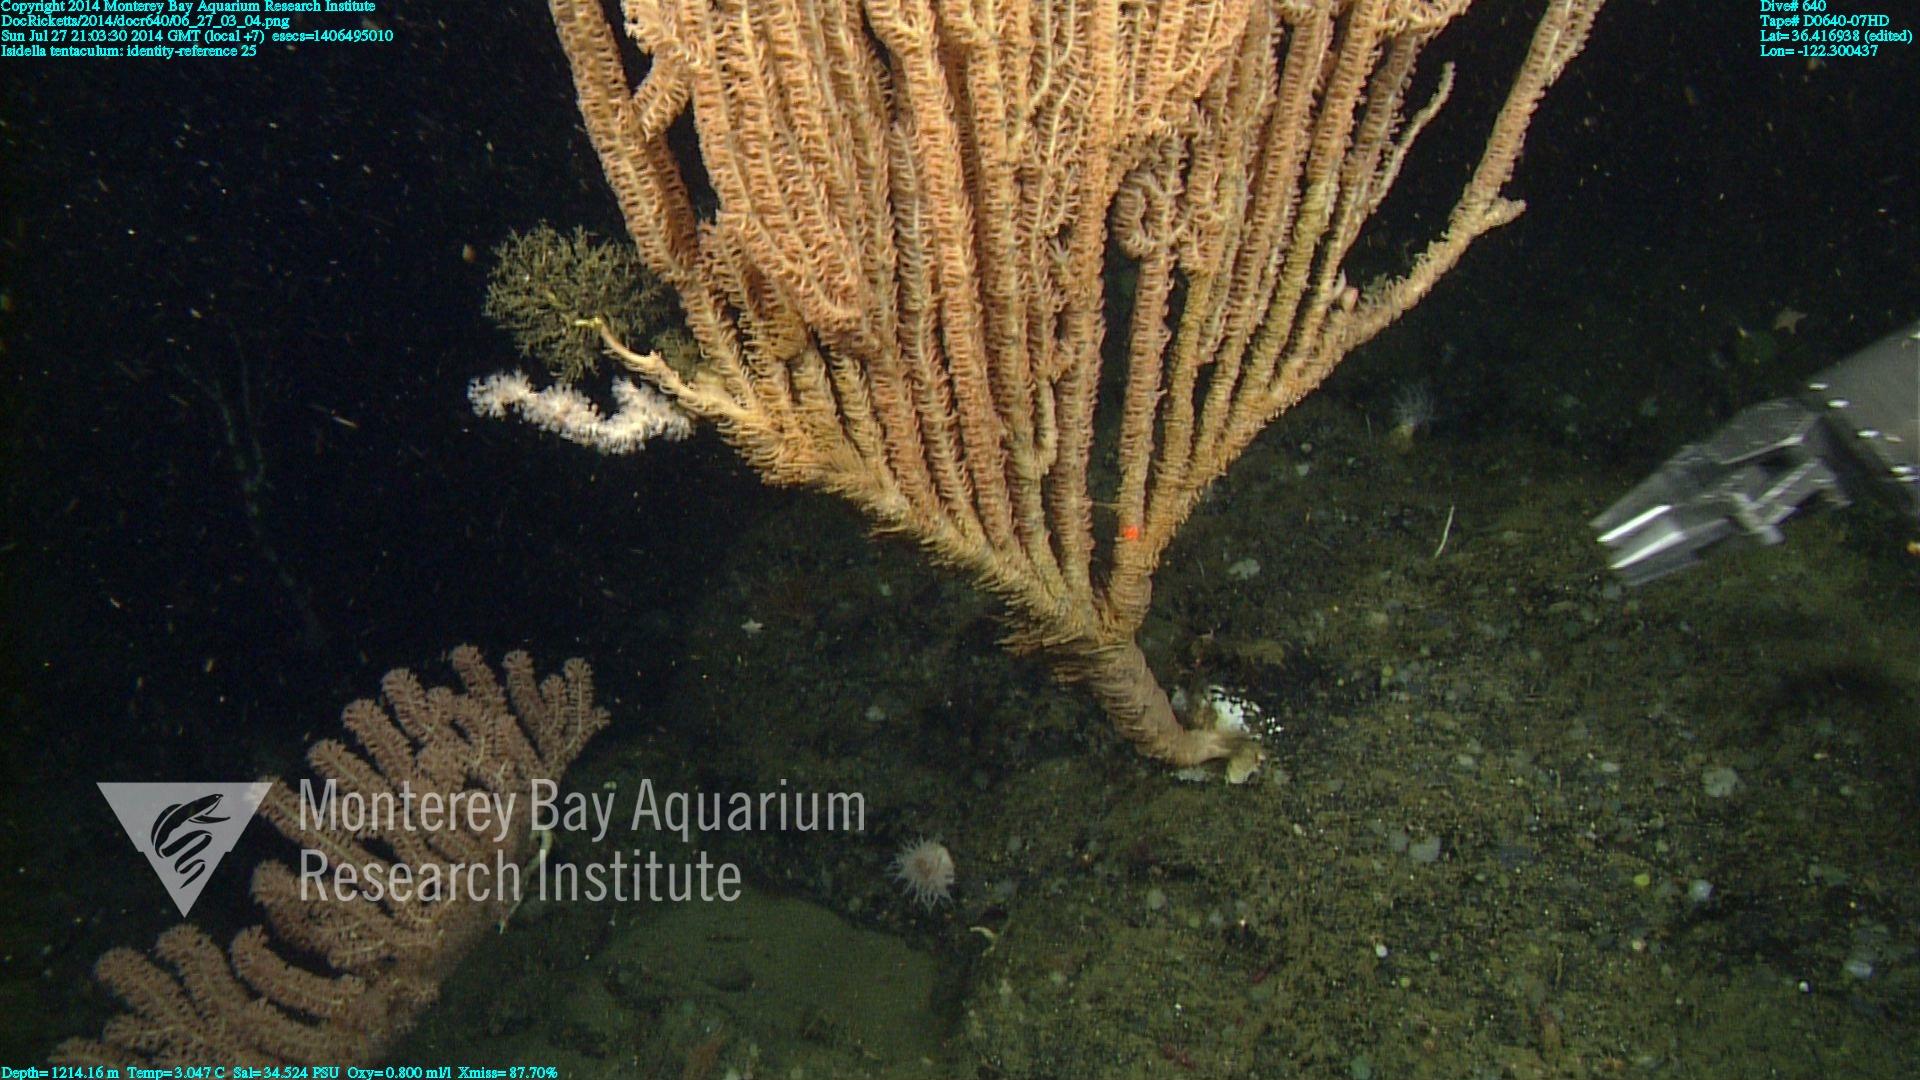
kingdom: Animalia
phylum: Cnidaria
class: Anthozoa
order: Scleralcyonacea
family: Keratoisididae
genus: Isidella
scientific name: Isidella tentaculum
